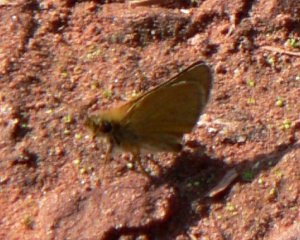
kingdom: Animalia
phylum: Arthropoda
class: Insecta
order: Lepidoptera
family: Hesperiidae
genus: Thymelicus
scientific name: Thymelicus lineola
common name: European Skipper
